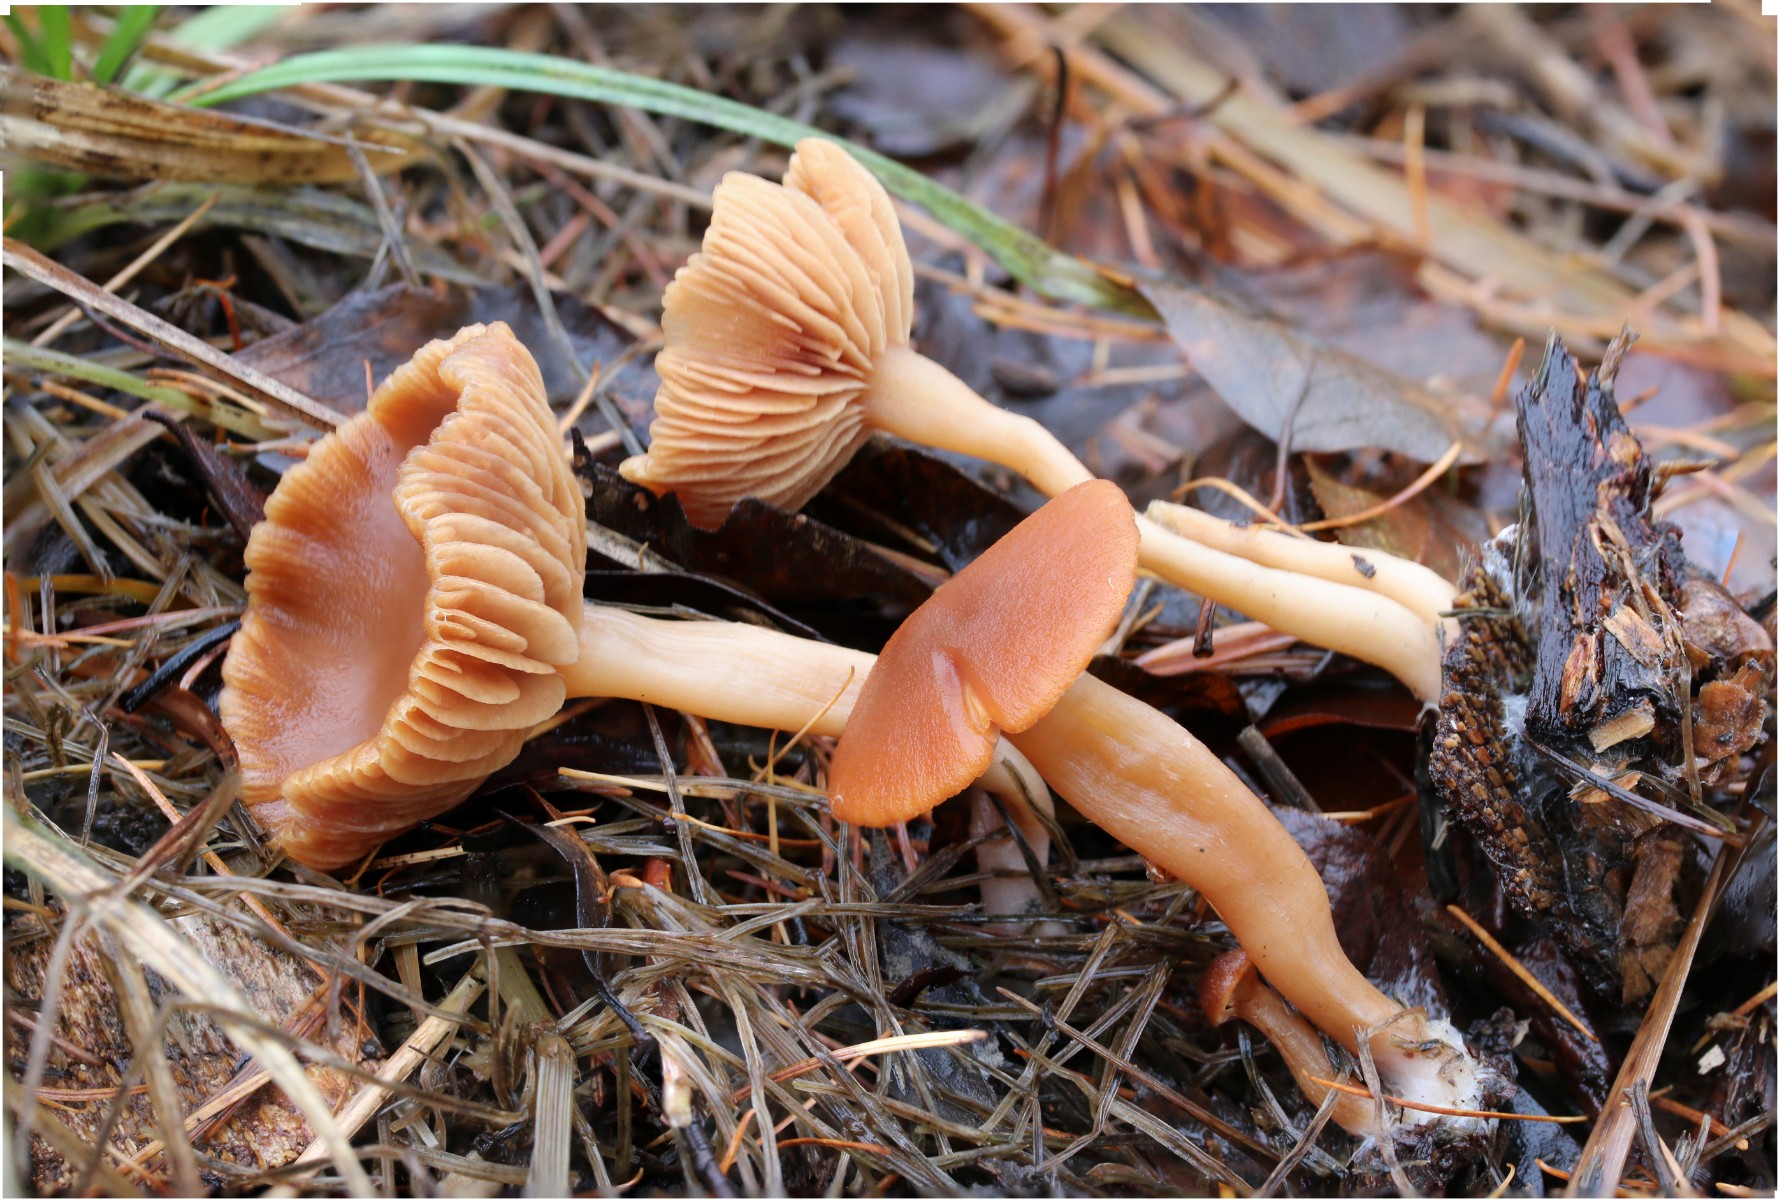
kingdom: Fungi
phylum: Basidiomycota
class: Agaricomycetes
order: Agaricales
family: Tubariaceae
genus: Tubaria
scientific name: Tubaria furfuracea
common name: kliddet fnughat
